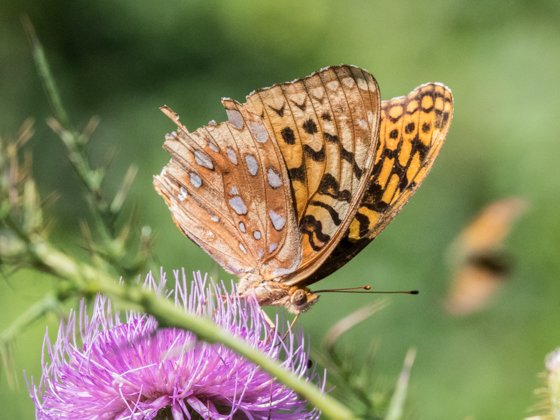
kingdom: Animalia
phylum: Arthropoda
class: Insecta
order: Lepidoptera
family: Nymphalidae
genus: Speyeria
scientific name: Speyeria cybele
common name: Great Spangled Fritillary
